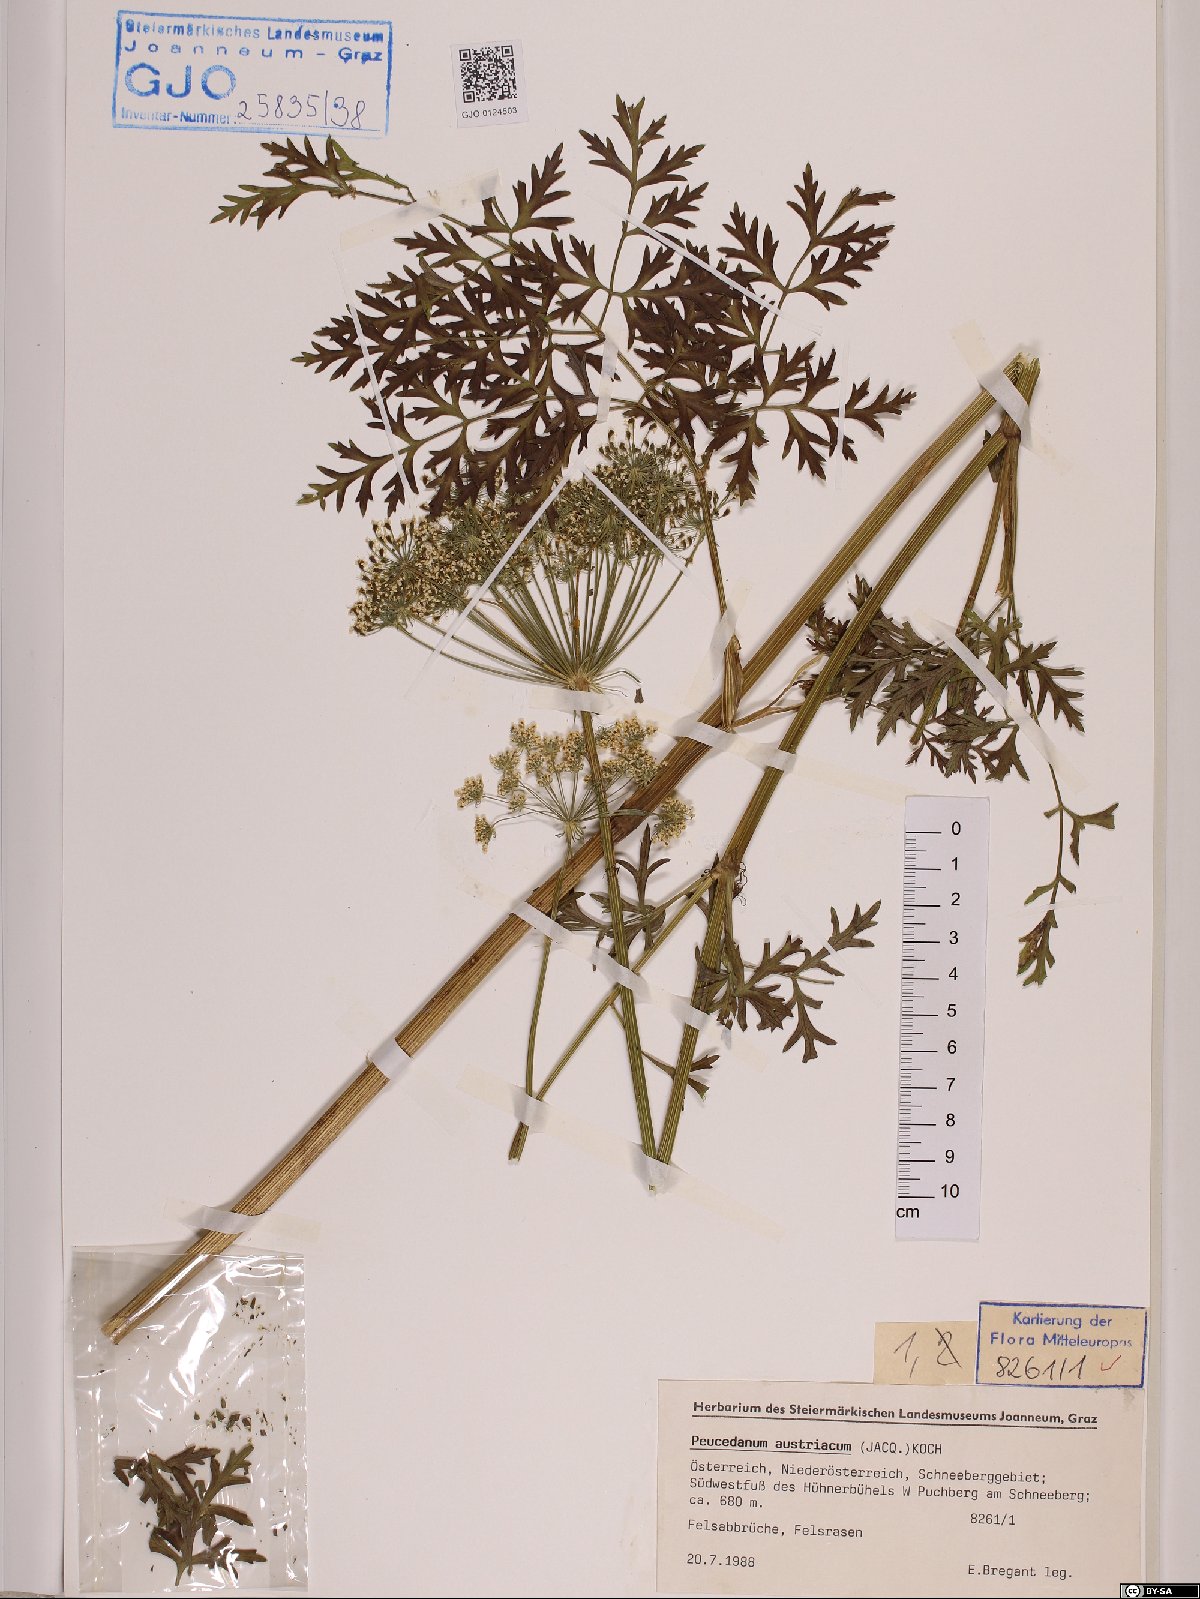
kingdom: Plantae
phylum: Tracheophyta
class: Magnoliopsida
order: Apiales
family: Apiaceae
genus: Peucedanum
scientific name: Peucedanum austriacum
